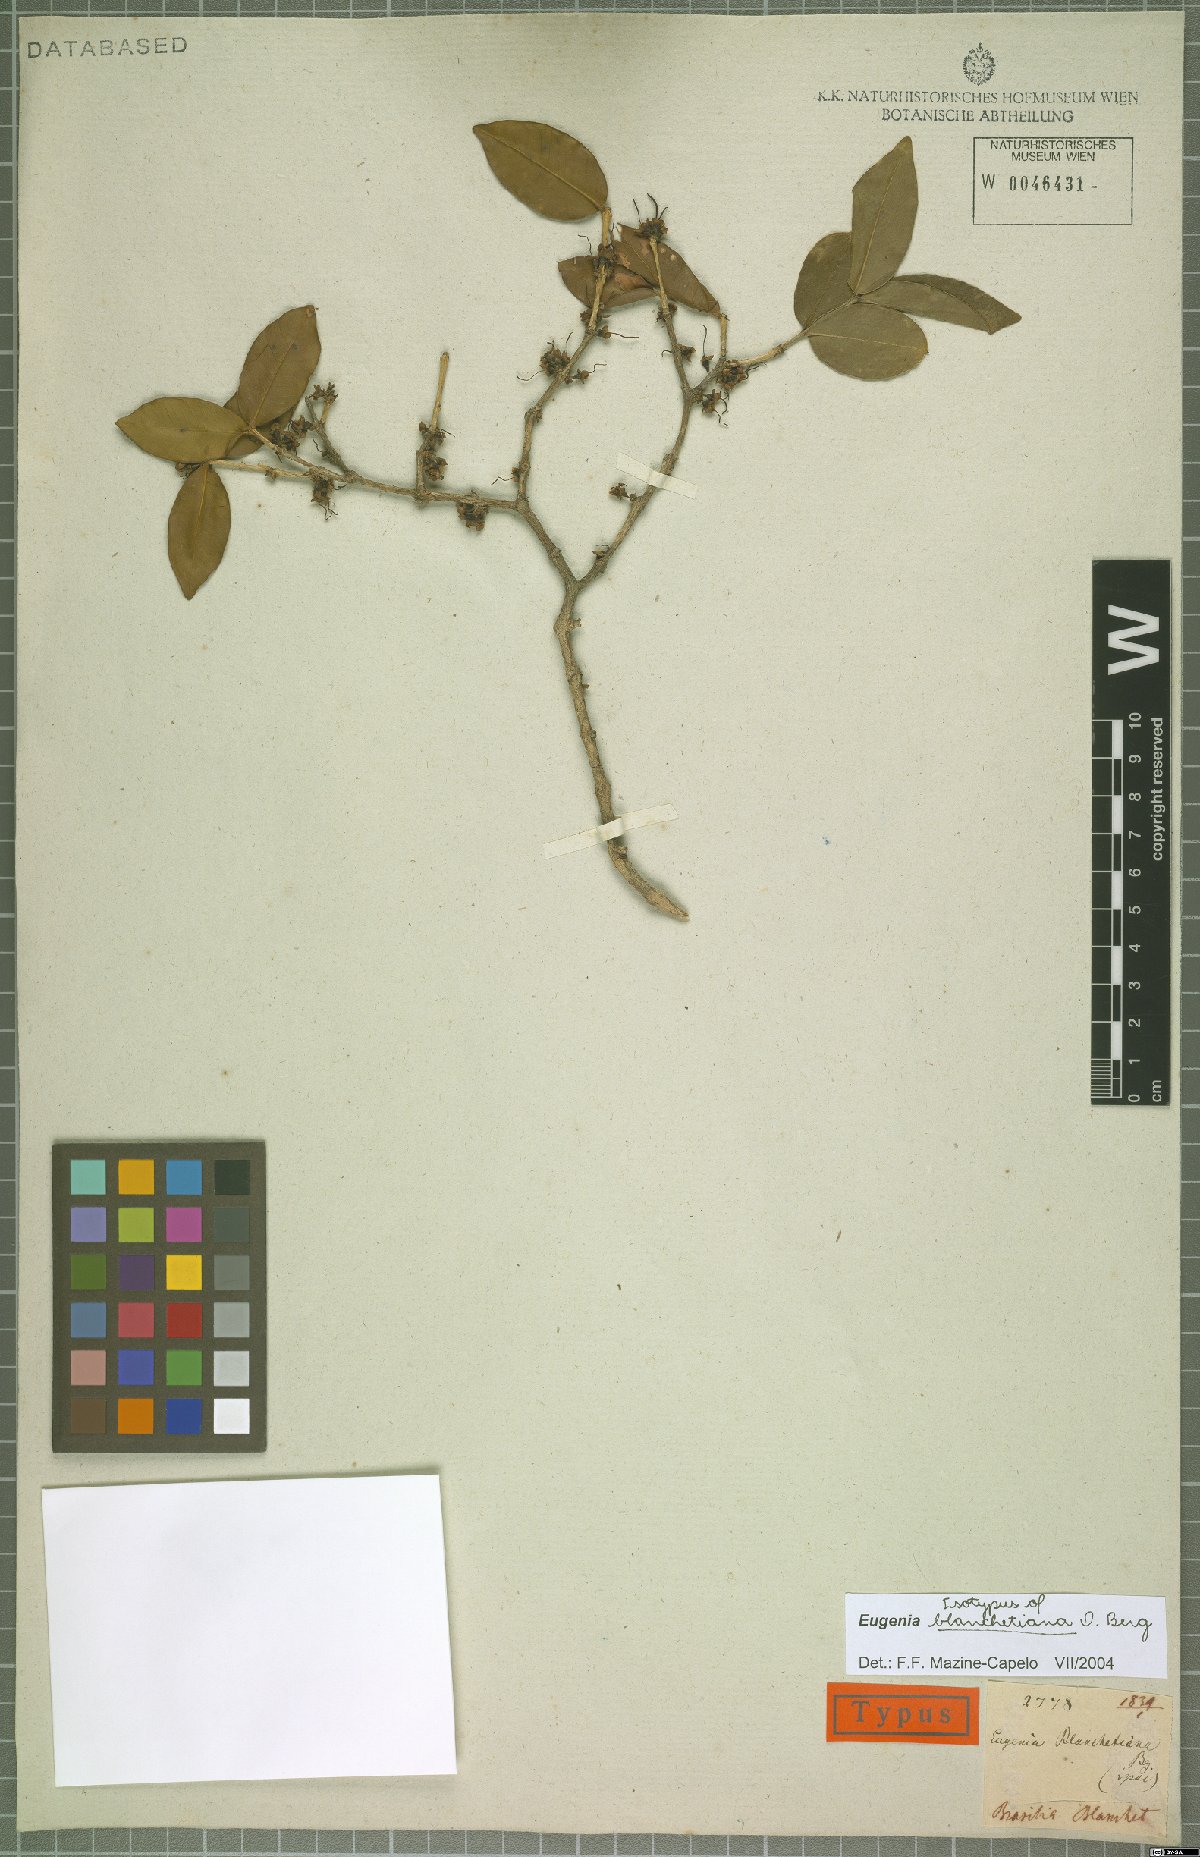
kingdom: Plantae
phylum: Tracheophyta
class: Magnoliopsida
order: Myrtales
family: Myrtaceae
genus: Eugenia
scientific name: Eugenia blanchetiana
